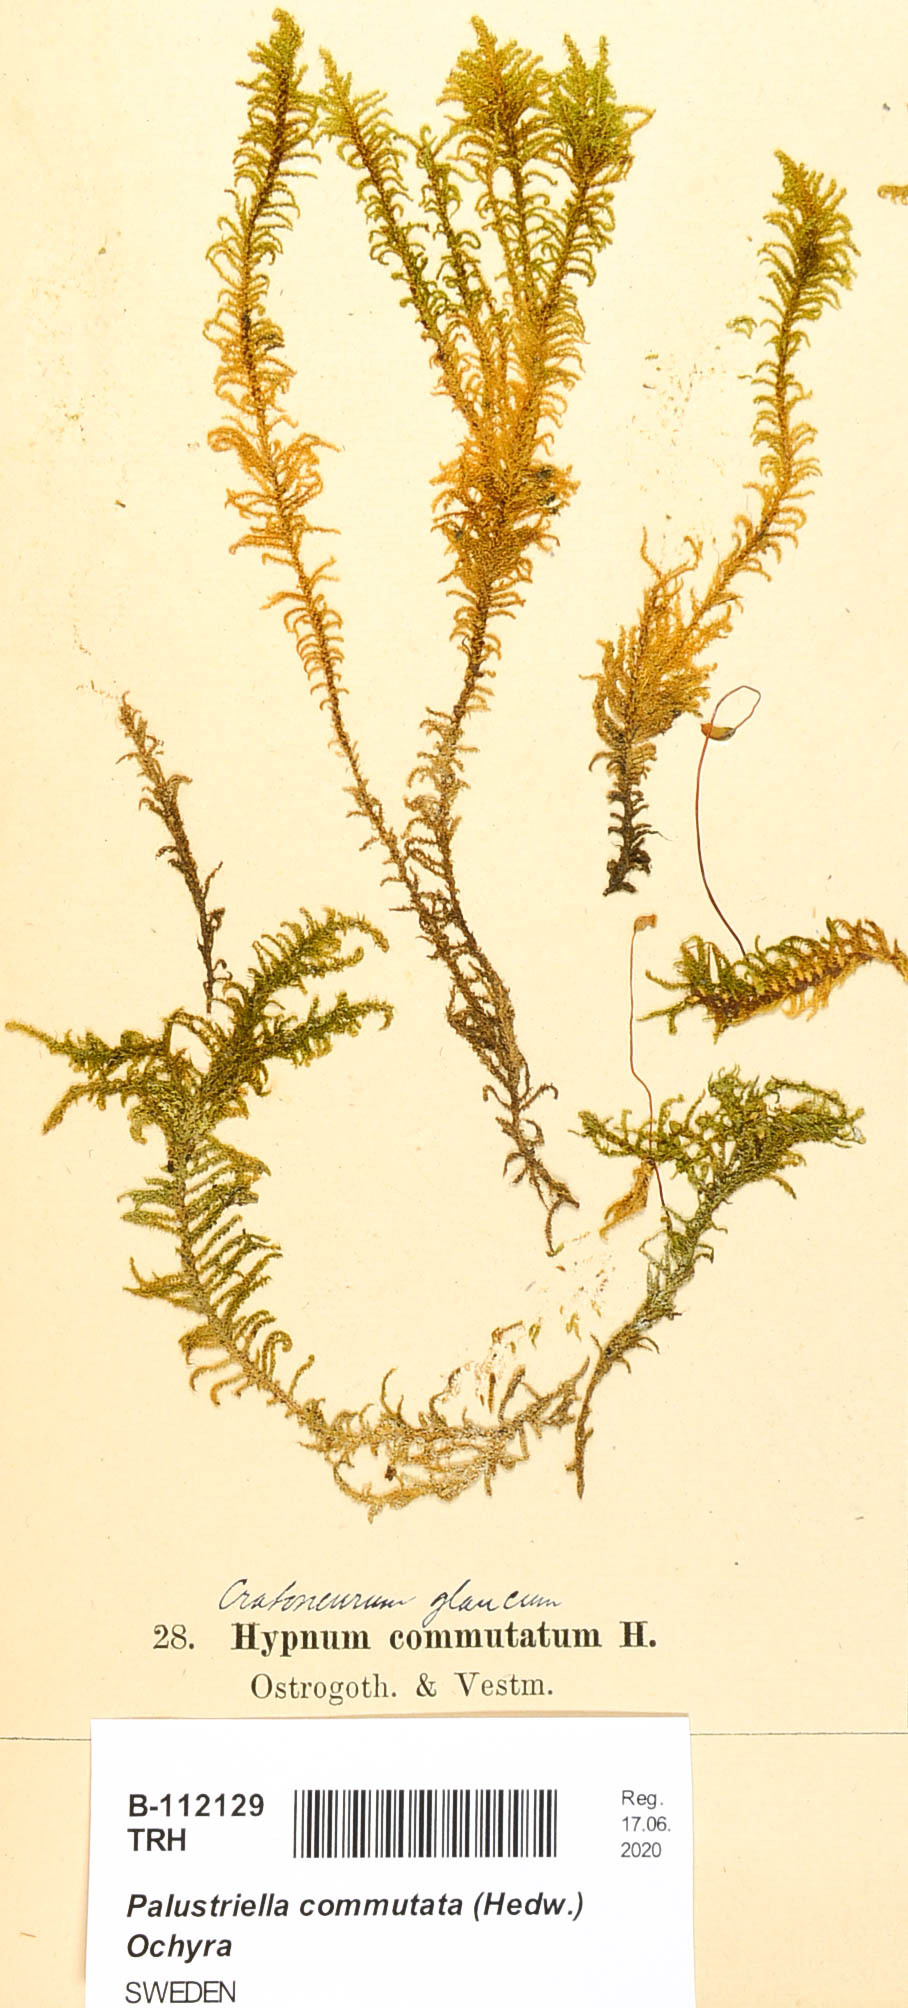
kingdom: Plantae
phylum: Bryophyta
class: Bryopsida
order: Hypnales
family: Amblystegiaceae
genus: Palustriella
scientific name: Palustriella commutata
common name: Curled hook-moss
